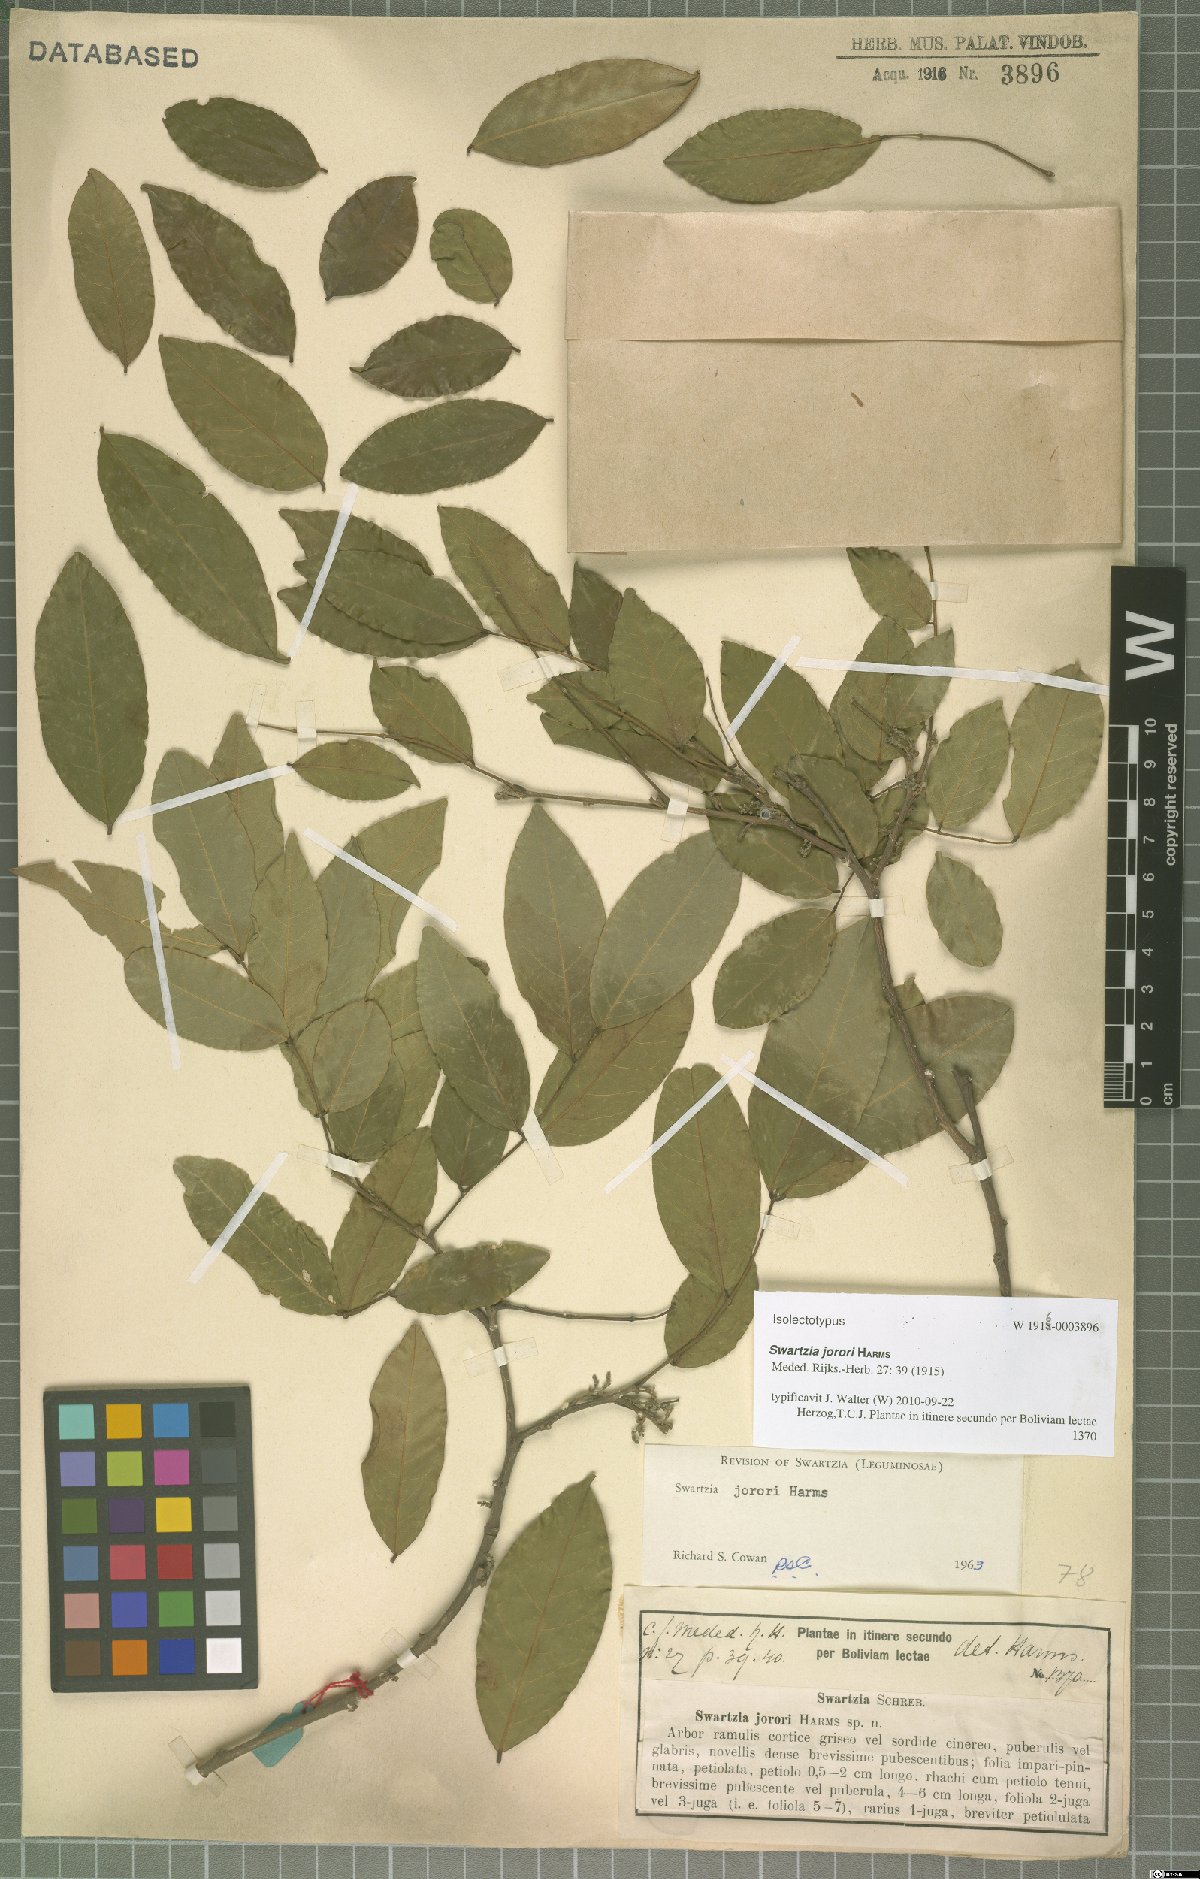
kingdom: Plantae
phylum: Tracheophyta
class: Magnoliopsida
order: Fabales
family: Fabaceae
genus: Swartzia
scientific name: Swartzia jorori
